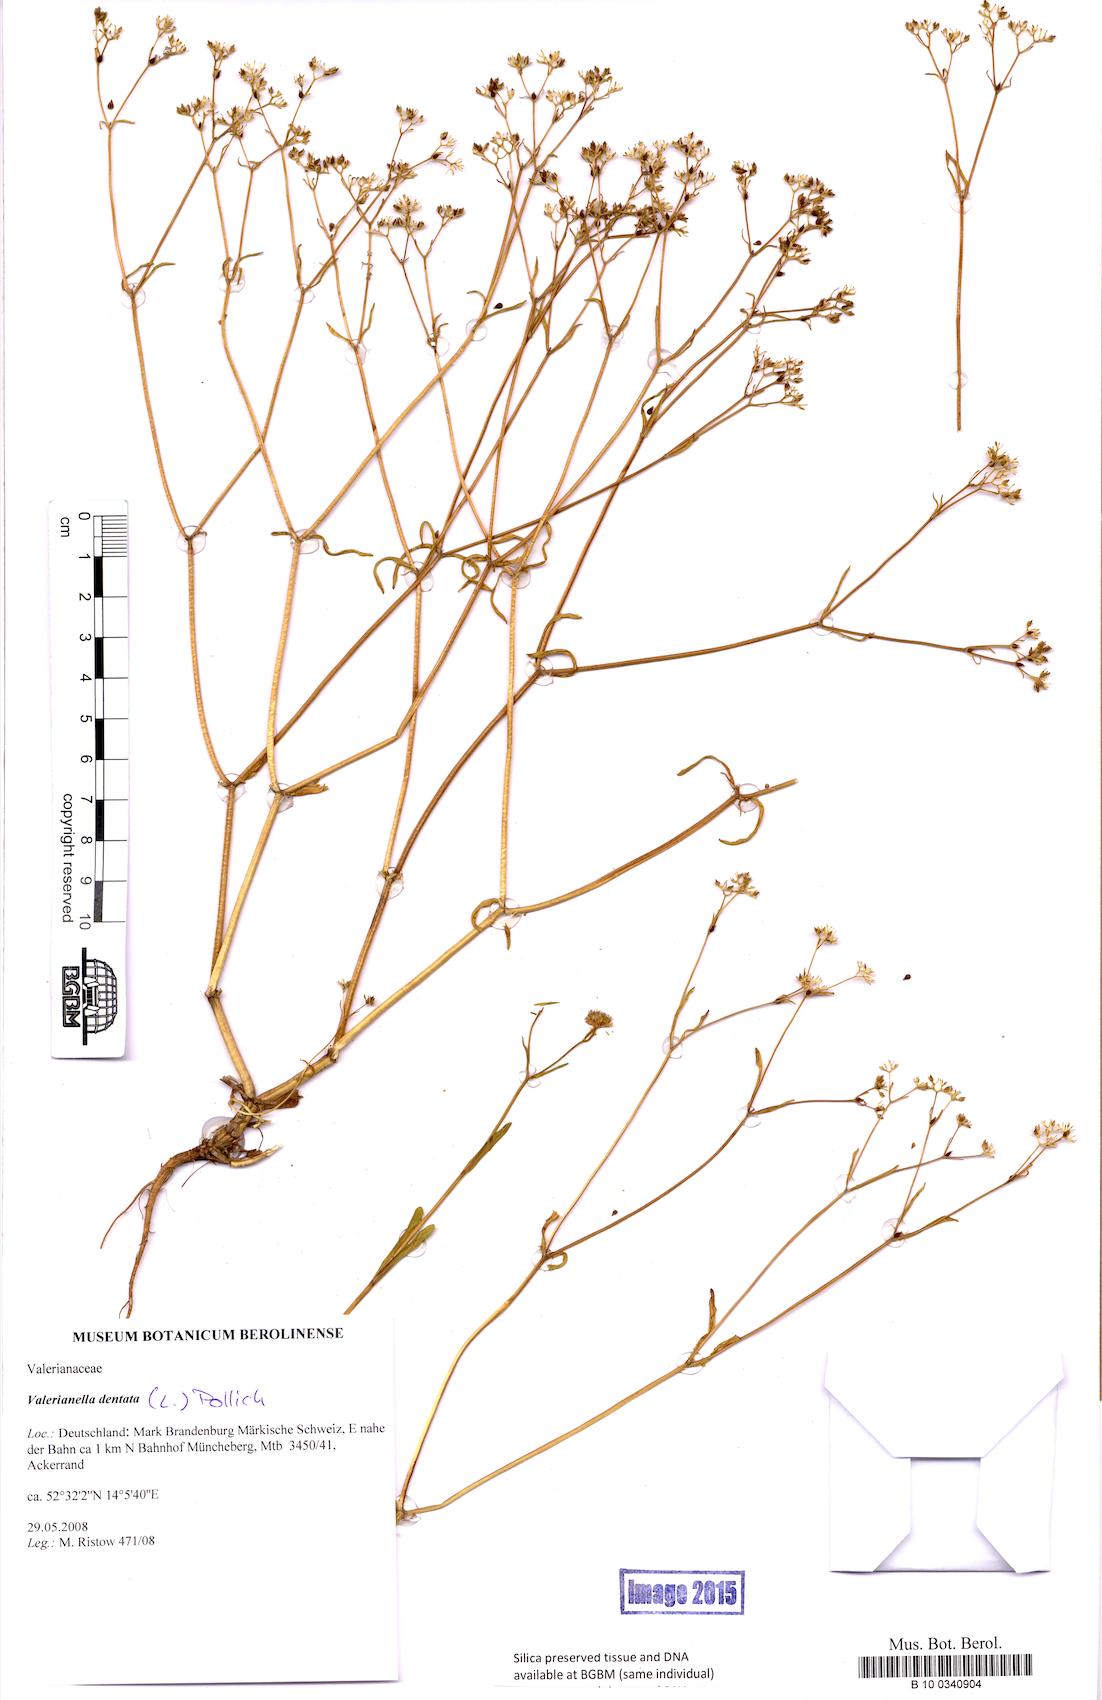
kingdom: Plantae
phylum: Tracheophyta
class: Magnoliopsida
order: Dipsacales
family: Caprifoliaceae
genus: Valerianella
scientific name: Valerianella dentata
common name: Narrow-fruited cornsalad
